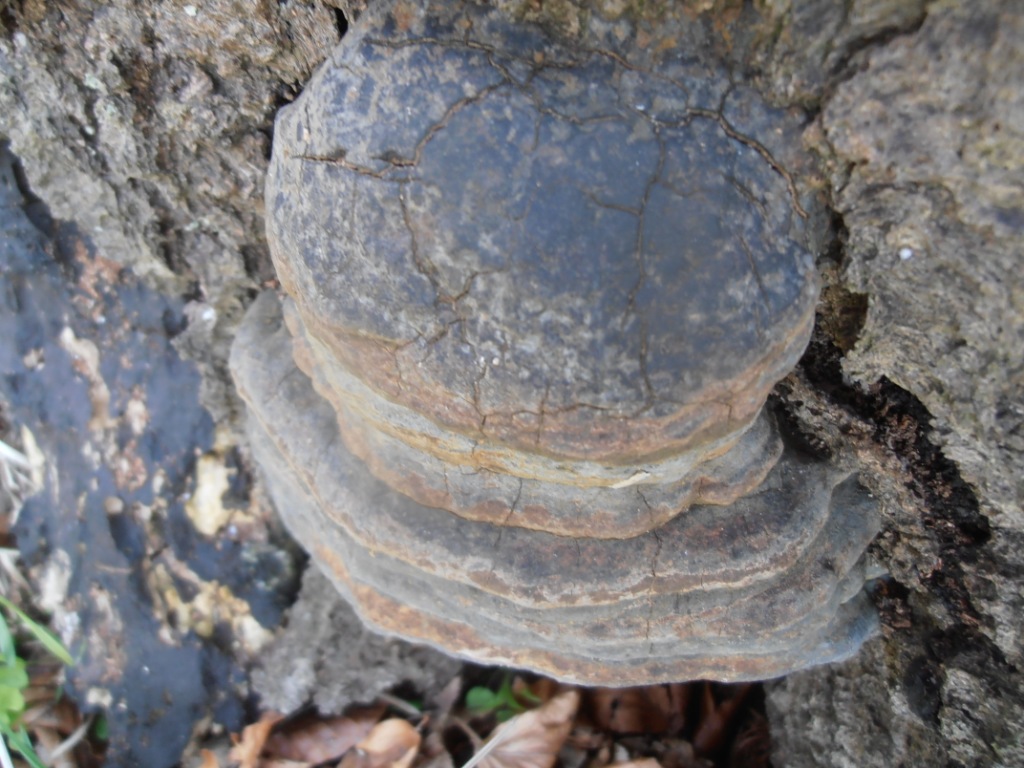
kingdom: Fungi
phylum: Basidiomycota
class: Agaricomycetes
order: Polyporales
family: Polyporaceae
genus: Ganoderma
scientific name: Ganoderma pfeifferi
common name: kobberrød lakporesvamp
